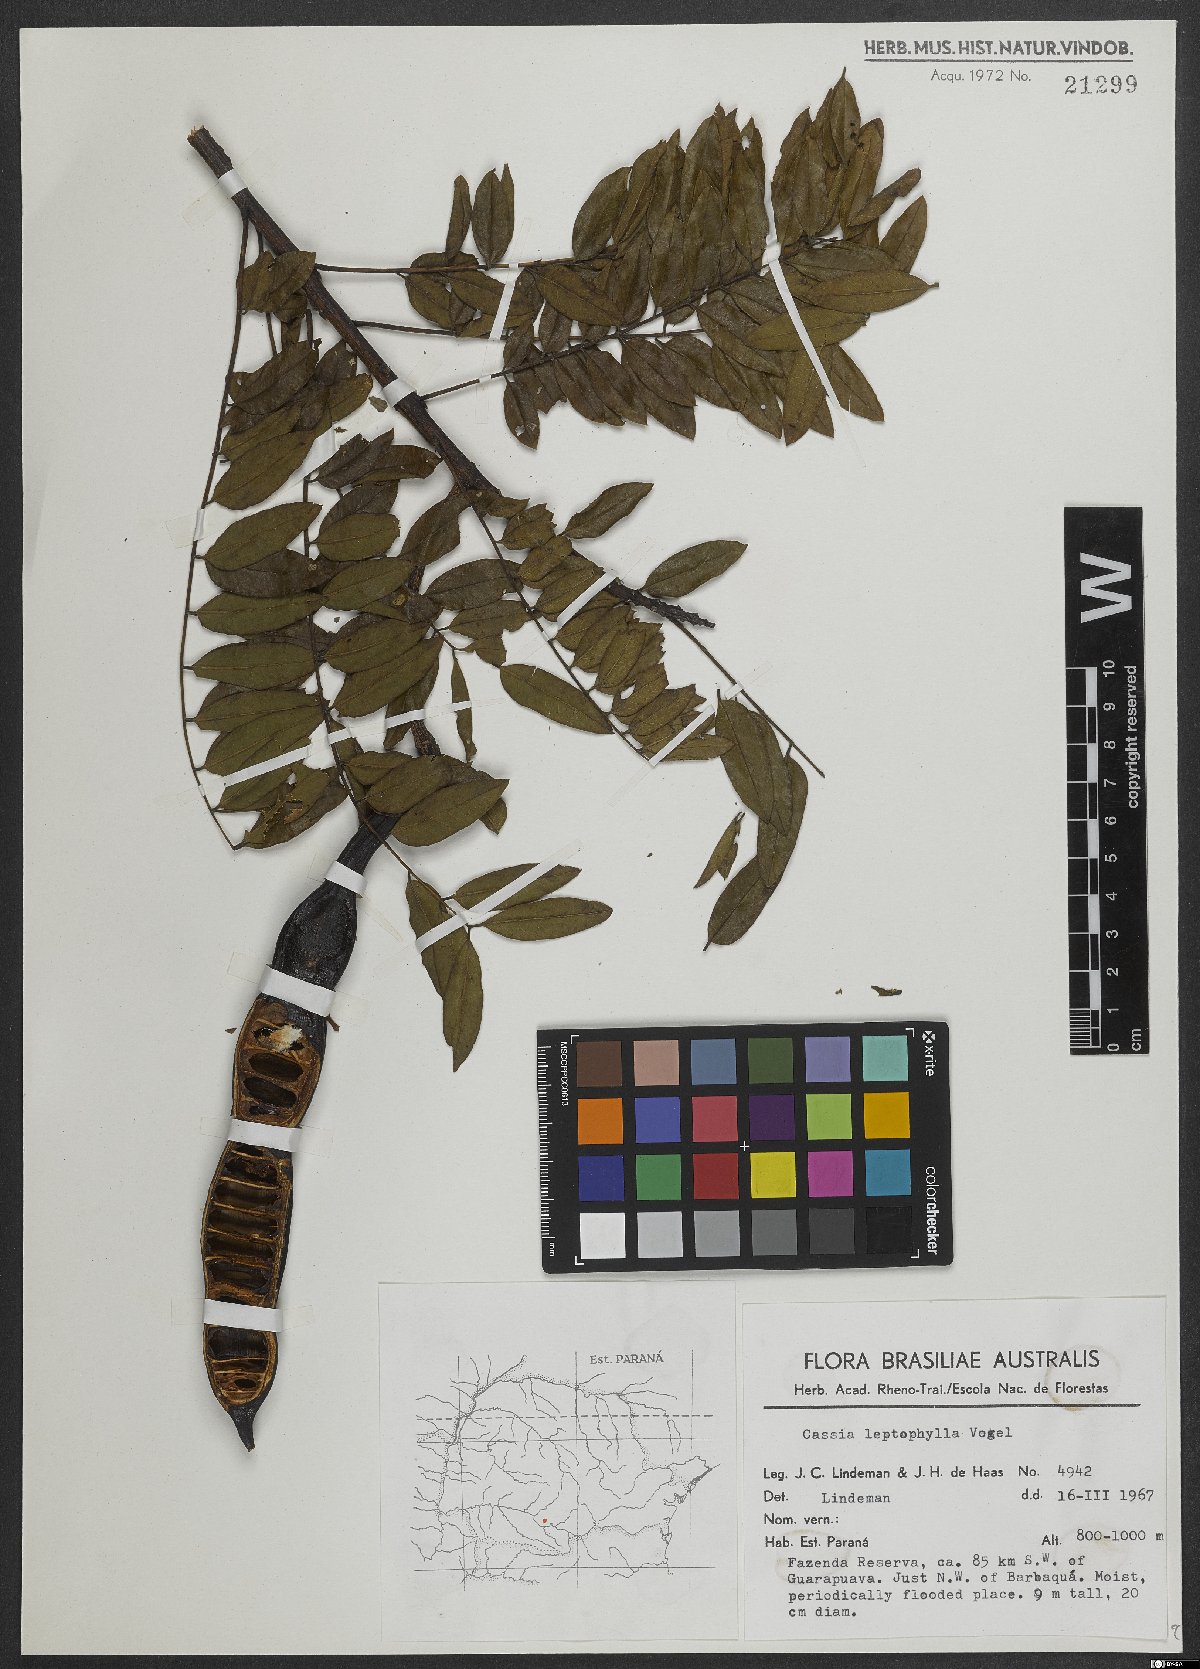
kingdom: Plantae
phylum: Tracheophyta
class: Magnoliopsida
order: Fabales
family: Fabaceae
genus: Cassia
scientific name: Cassia leptophylla
